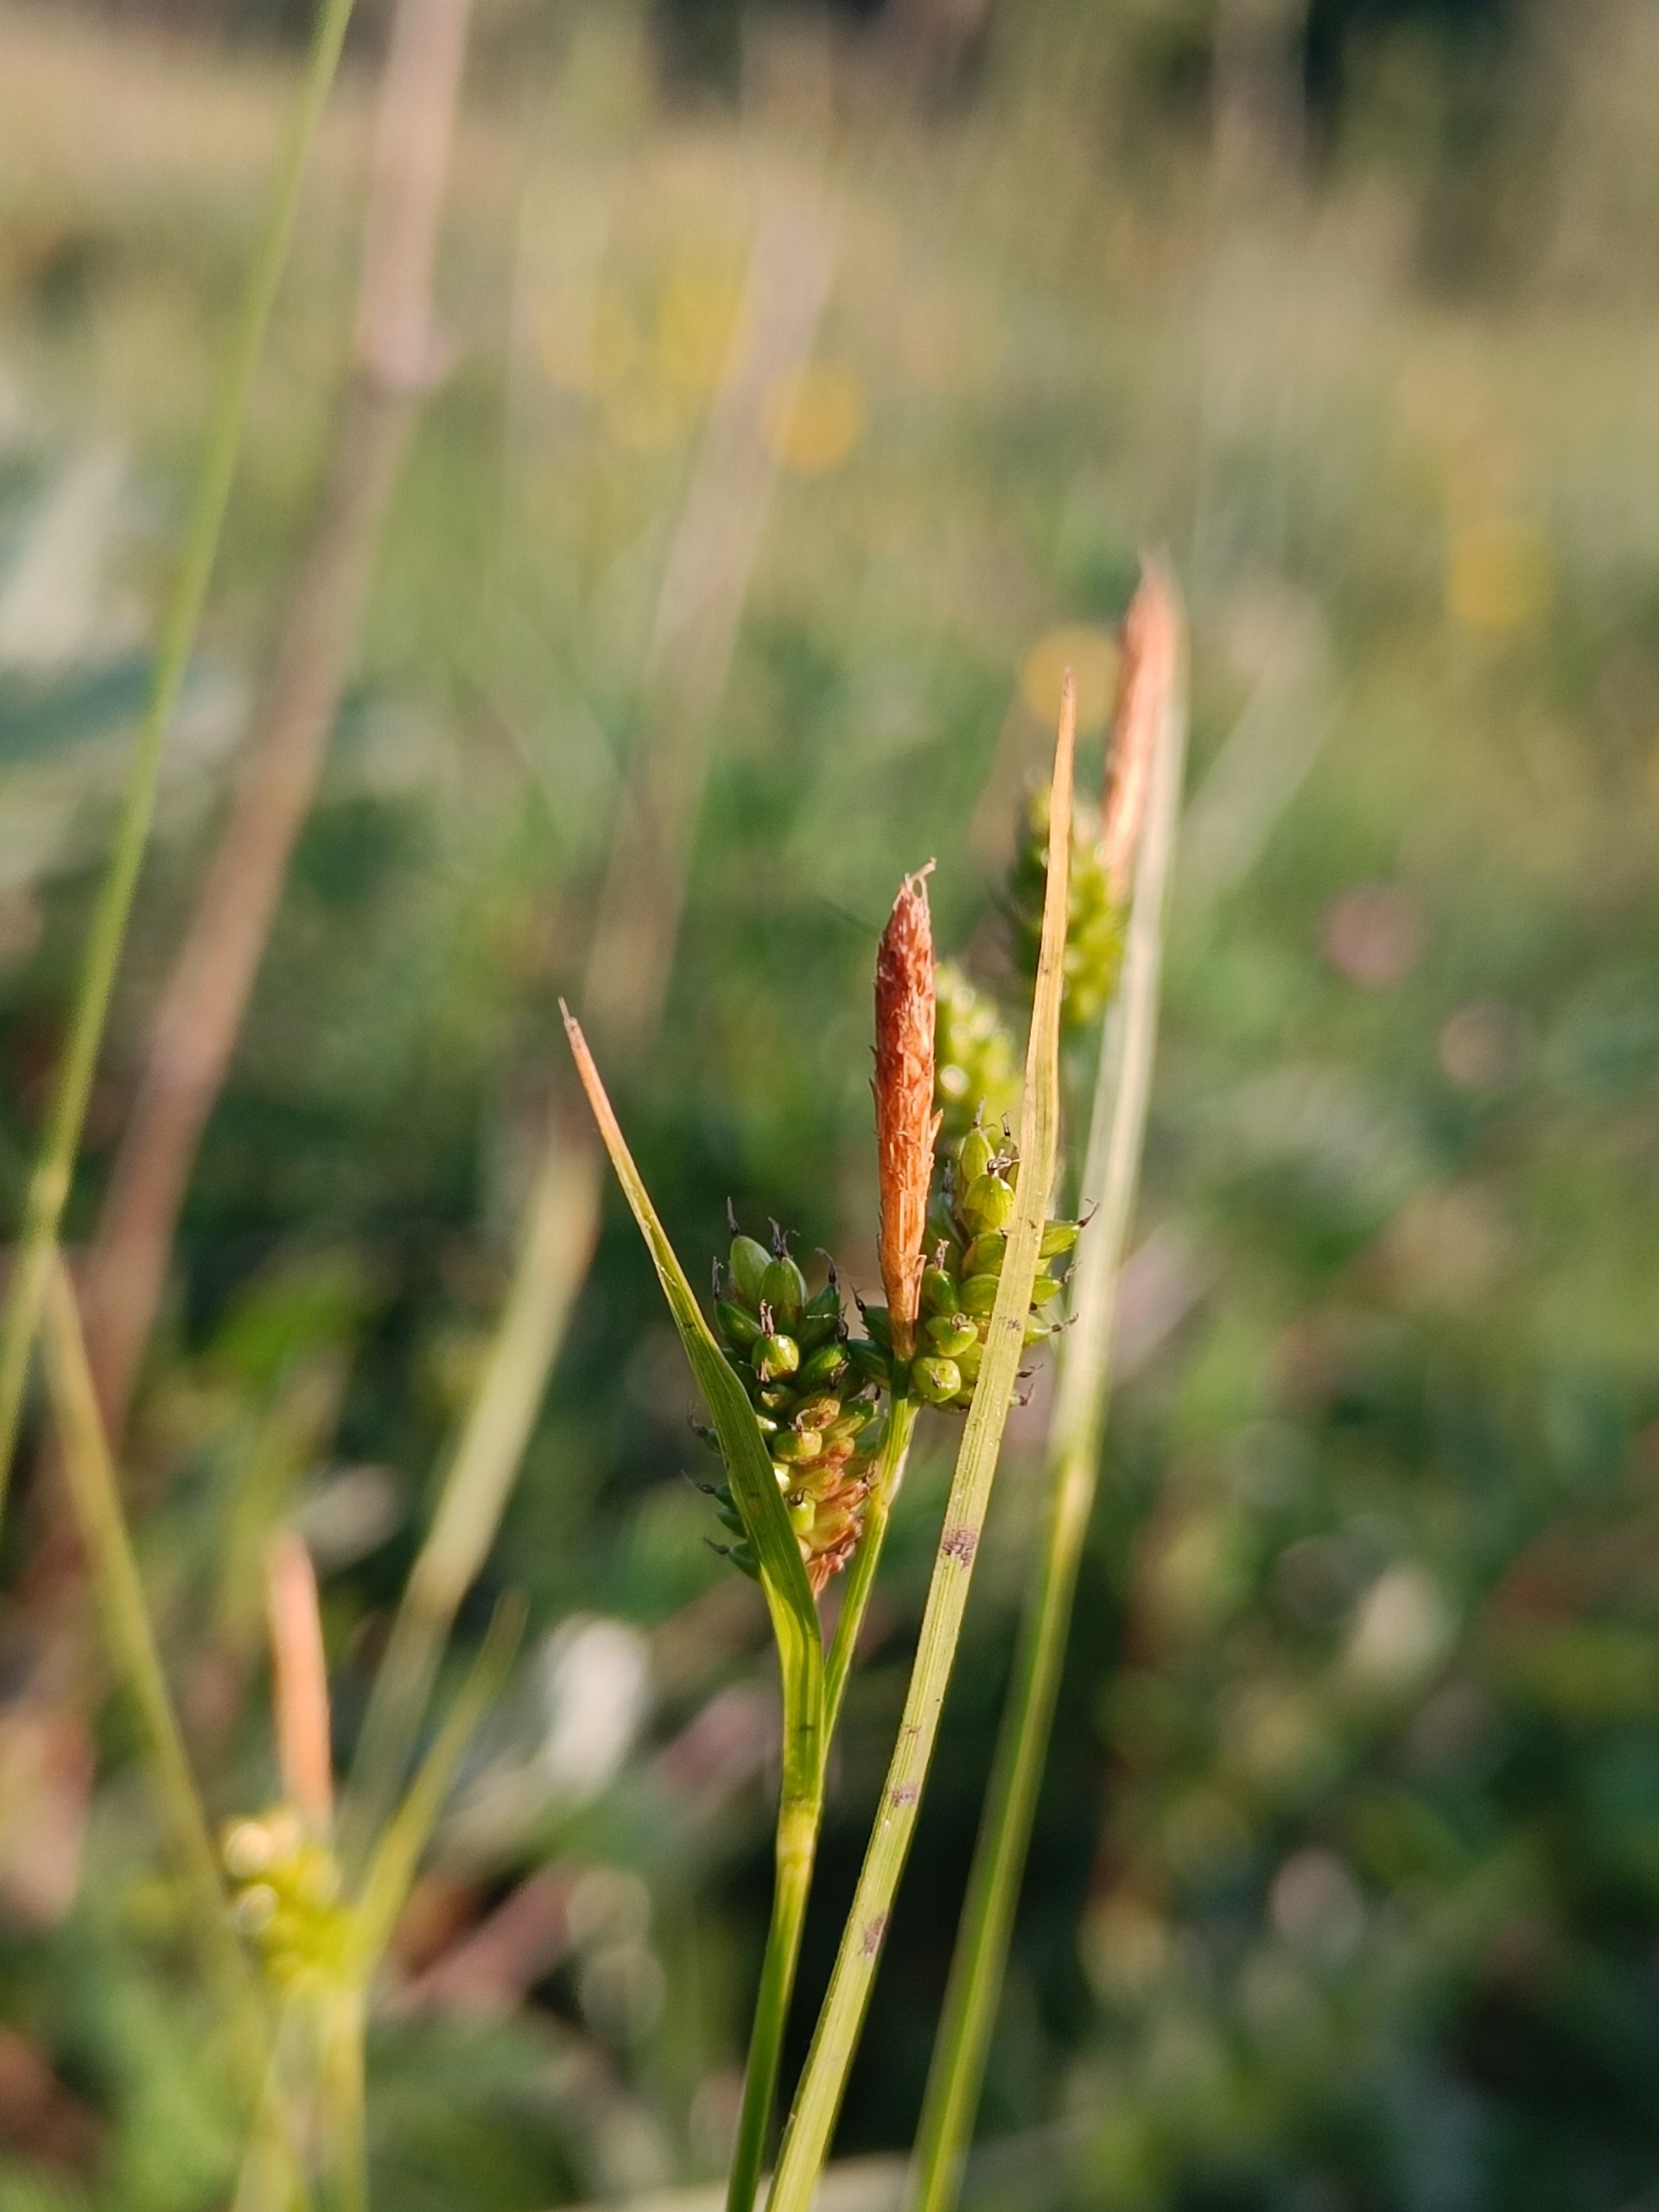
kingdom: Plantae
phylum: Tracheophyta
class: Liliopsida
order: Poales
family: Cyperaceae
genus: Carex
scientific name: Carex pallescens
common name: Bleg star
